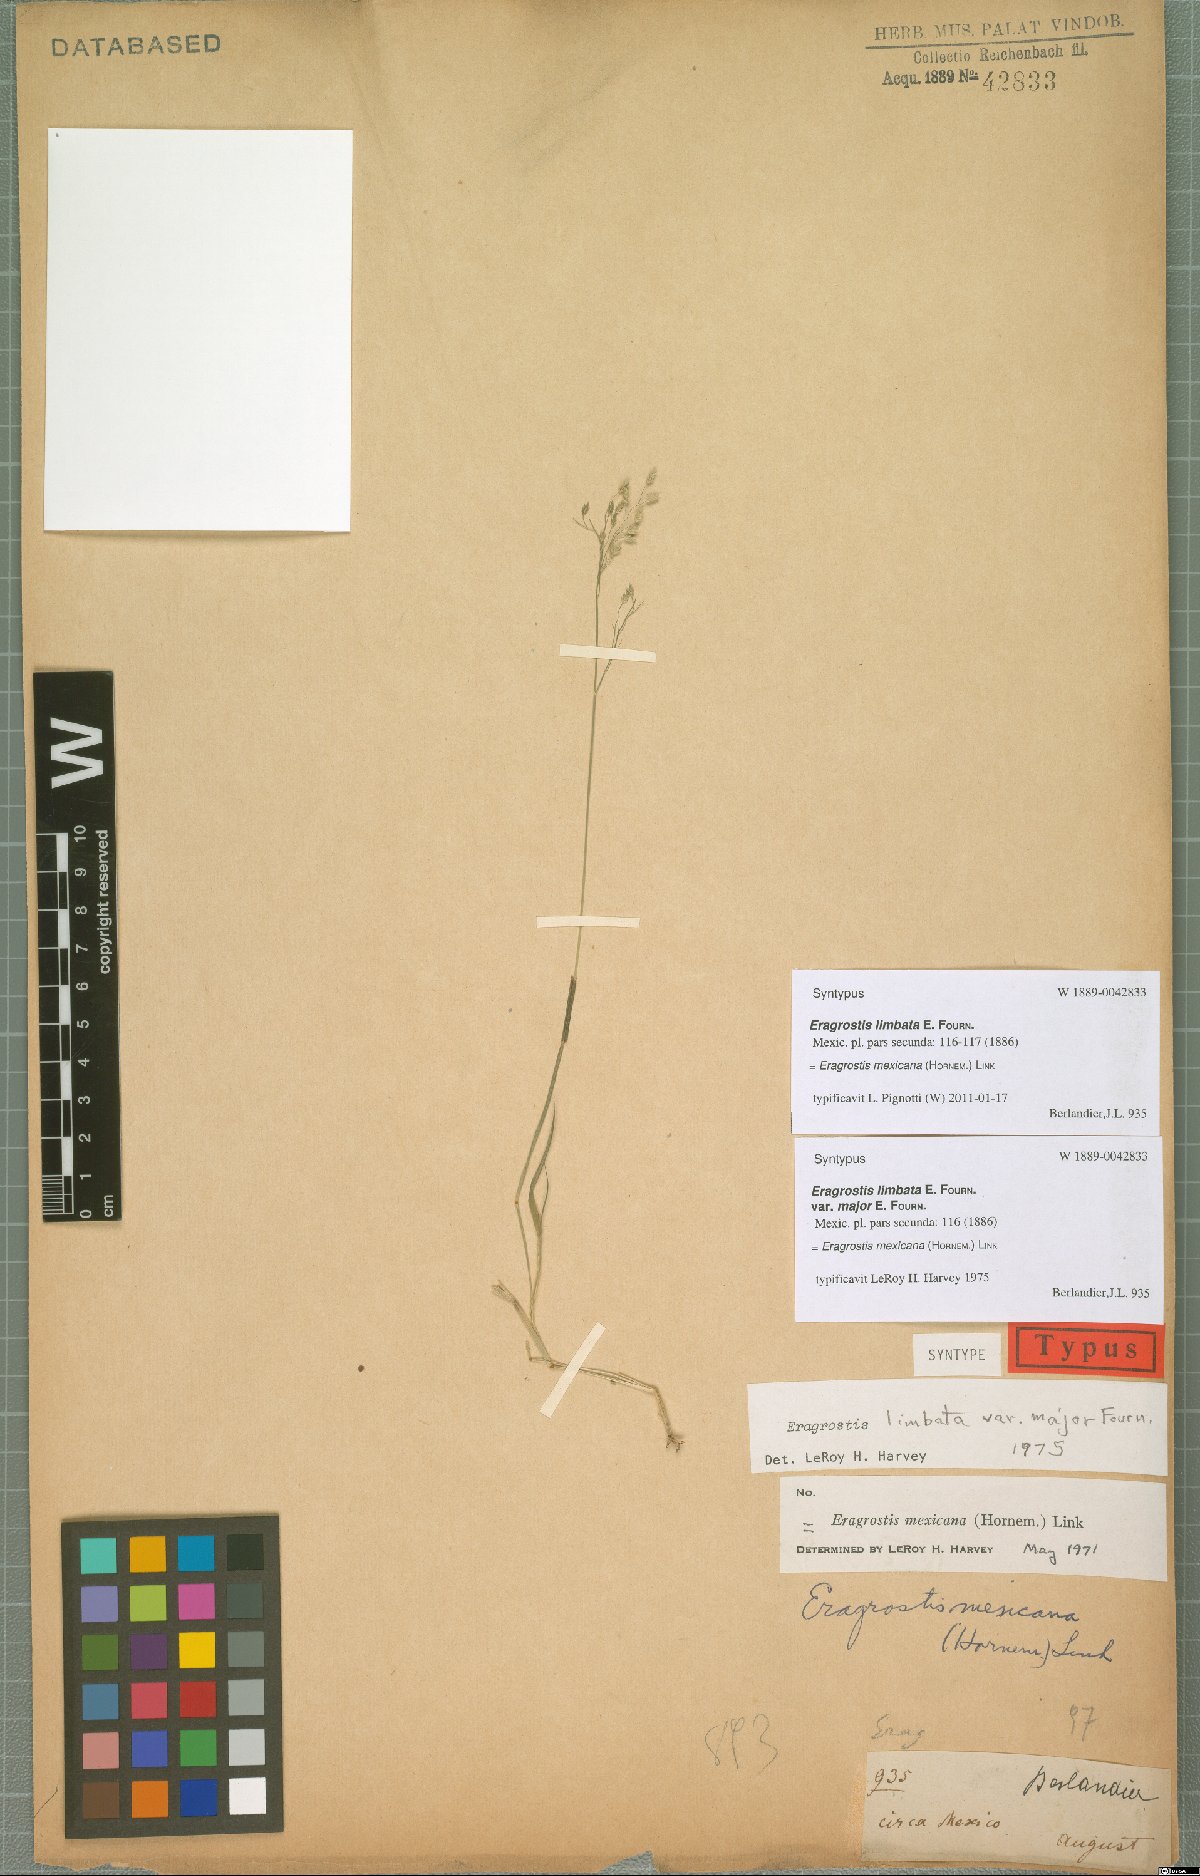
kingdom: Plantae
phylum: Tracheophyta
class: Liliopsida
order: Poales
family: Poaceae
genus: Eragrostis
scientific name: Eragrostis mexicana
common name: Mexican love grass
